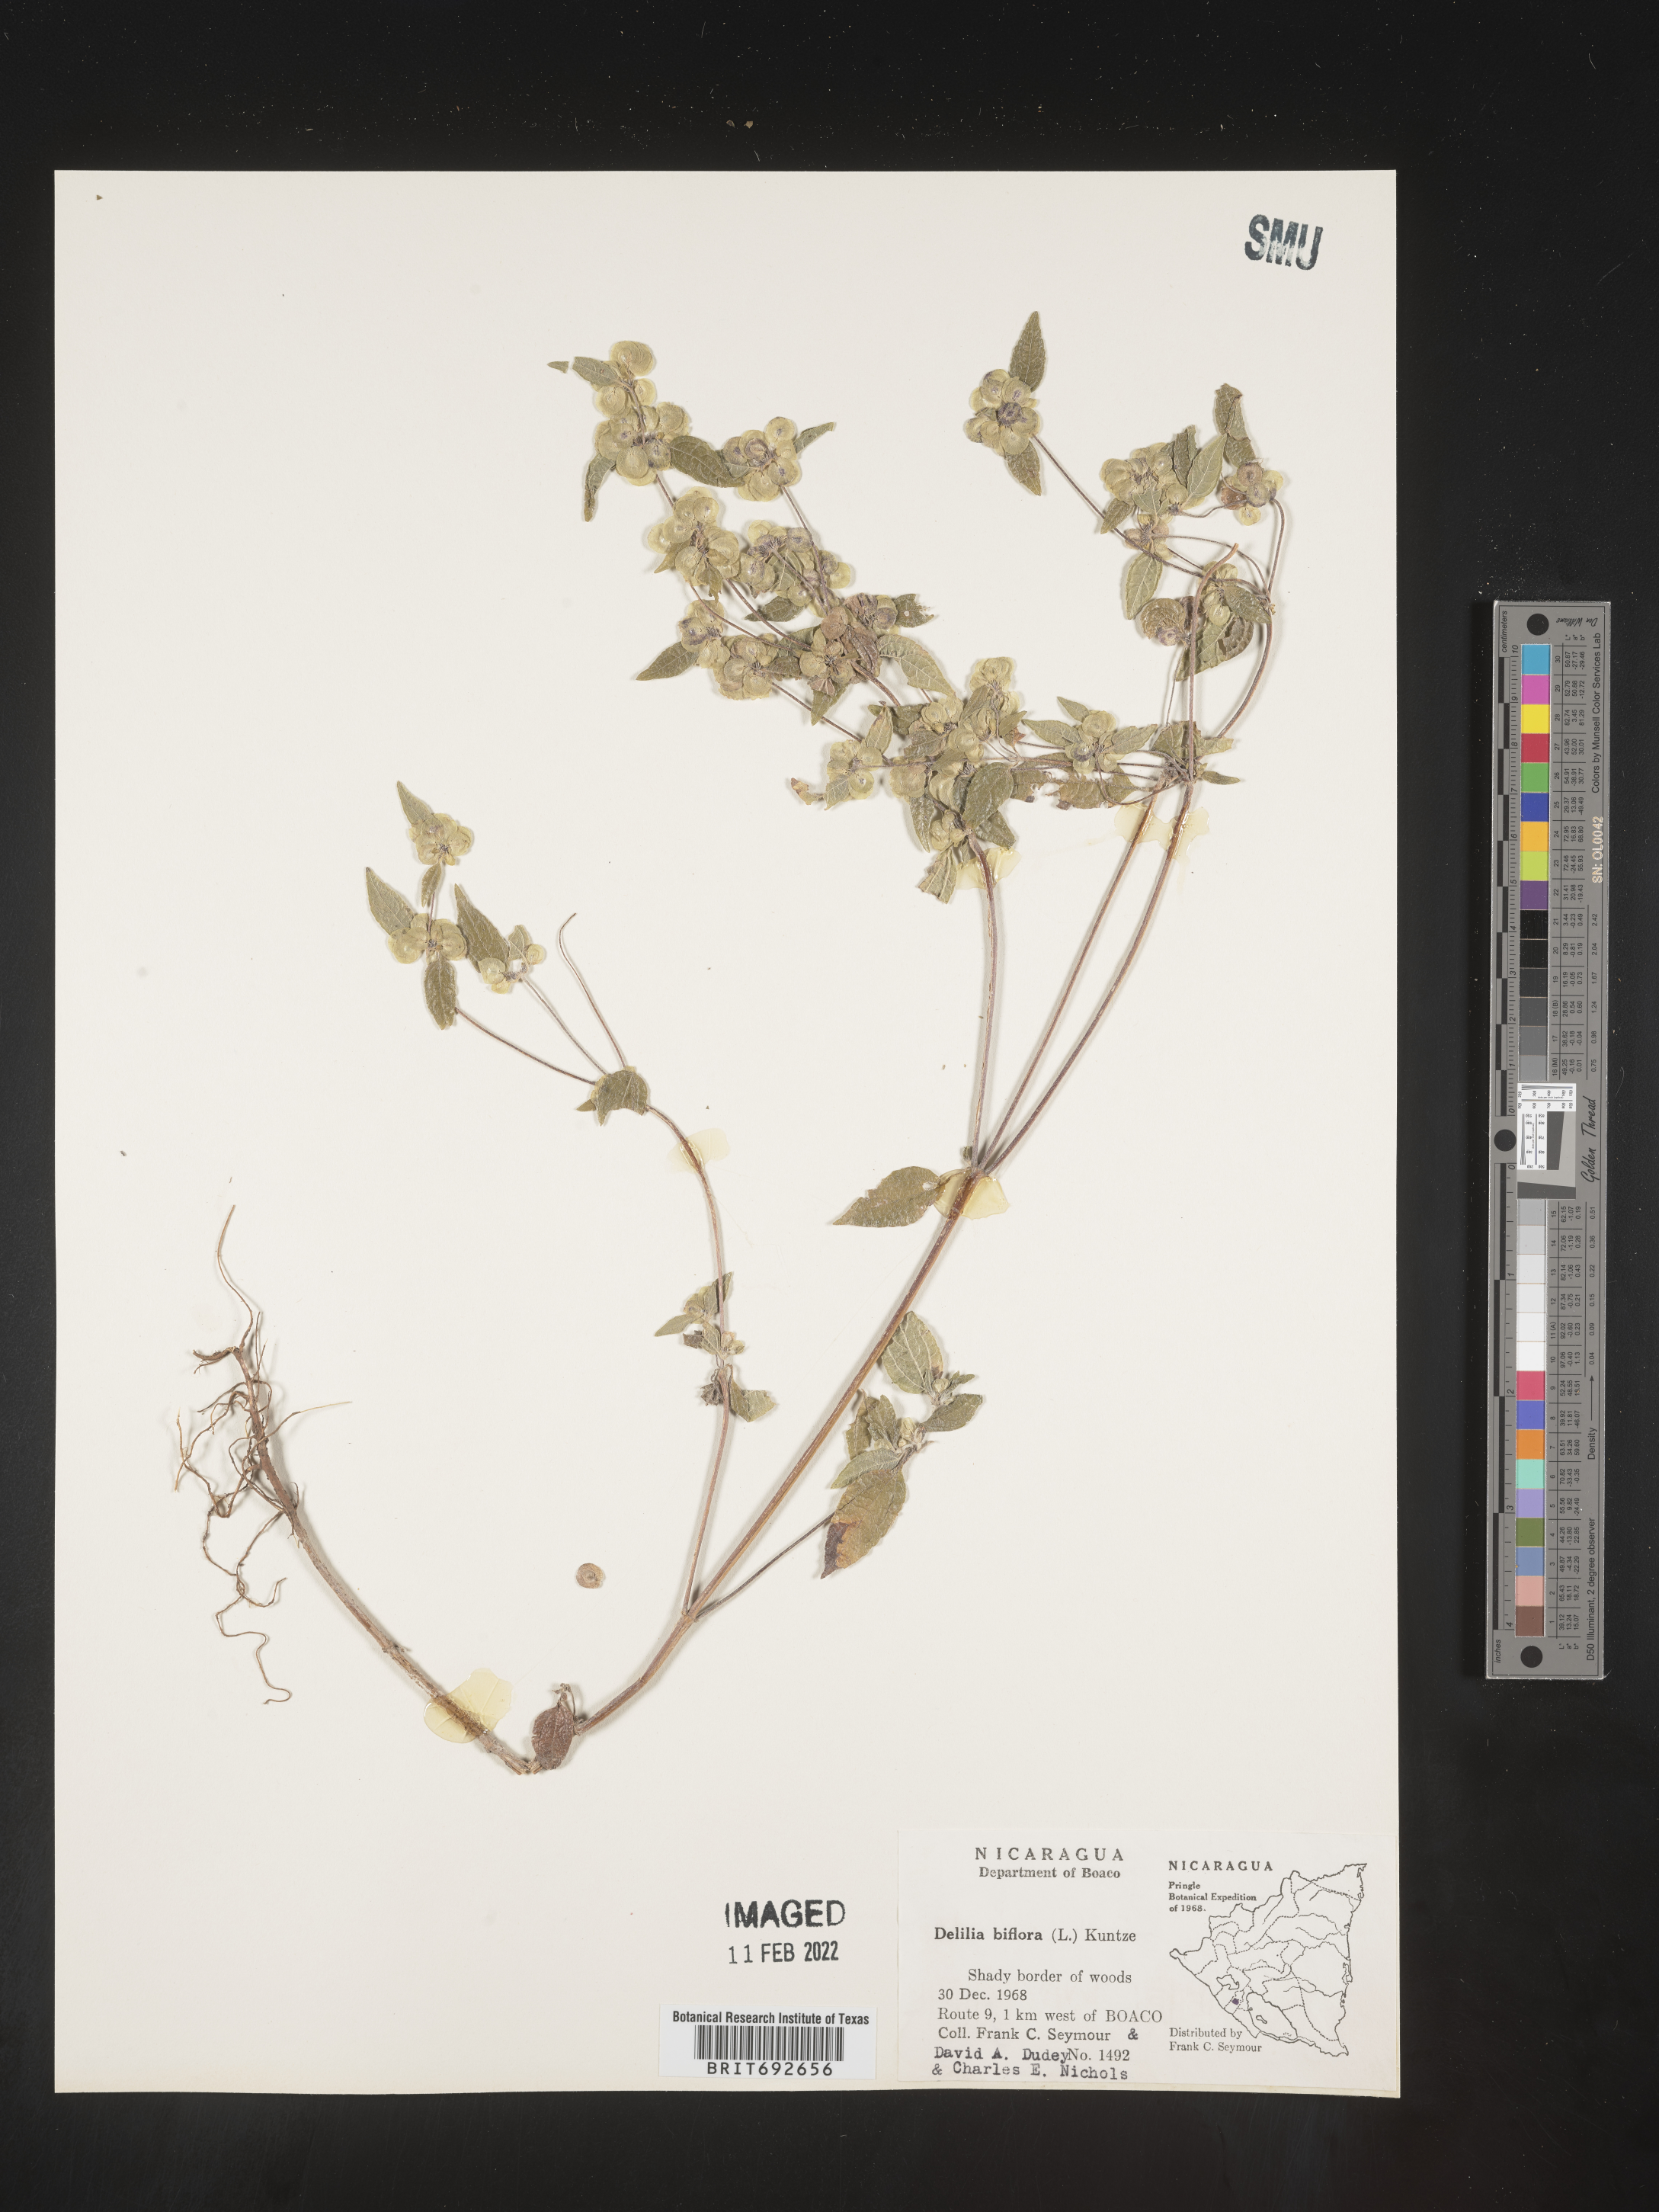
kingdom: Plantae
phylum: Tracheophyta
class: Magnoliopsida
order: Asterales
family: Asteraceae
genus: Delilia
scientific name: Delilia
